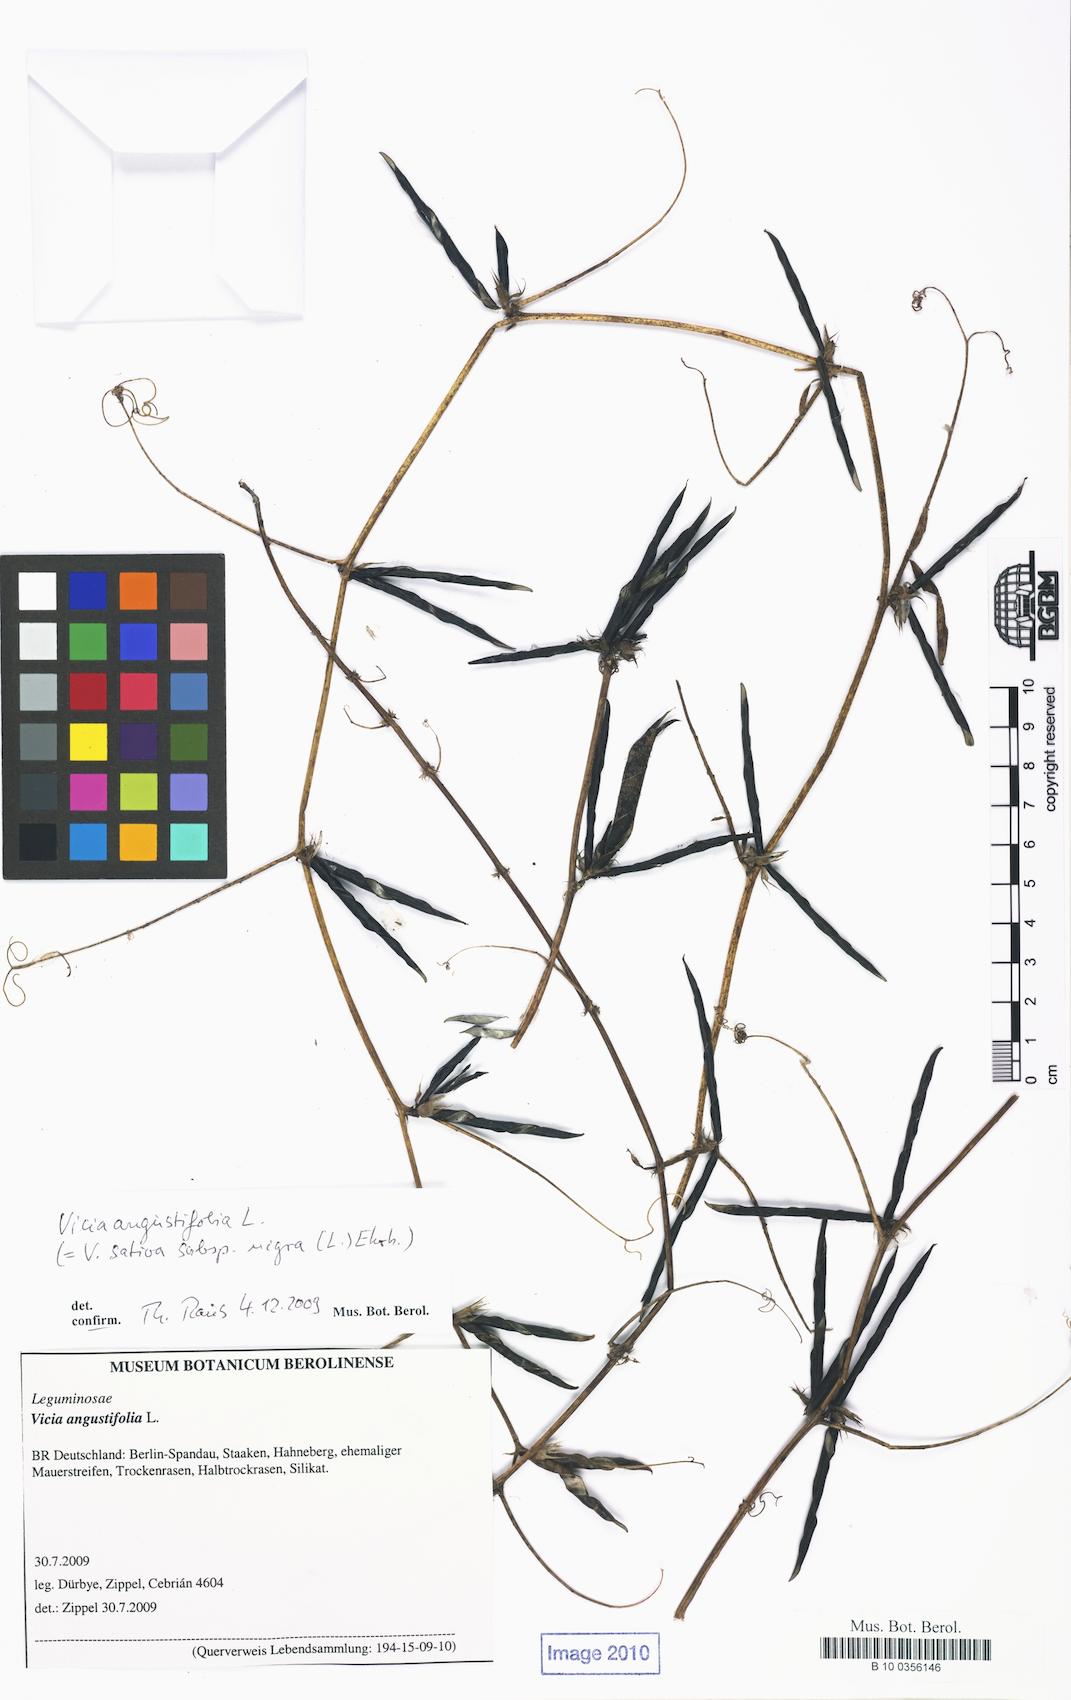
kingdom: Plantae
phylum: Tracheophyta
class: Magnoliopsida
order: Fabales
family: Fabaceae
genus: Vicia
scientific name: Vicia sativa
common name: Garden vetch
